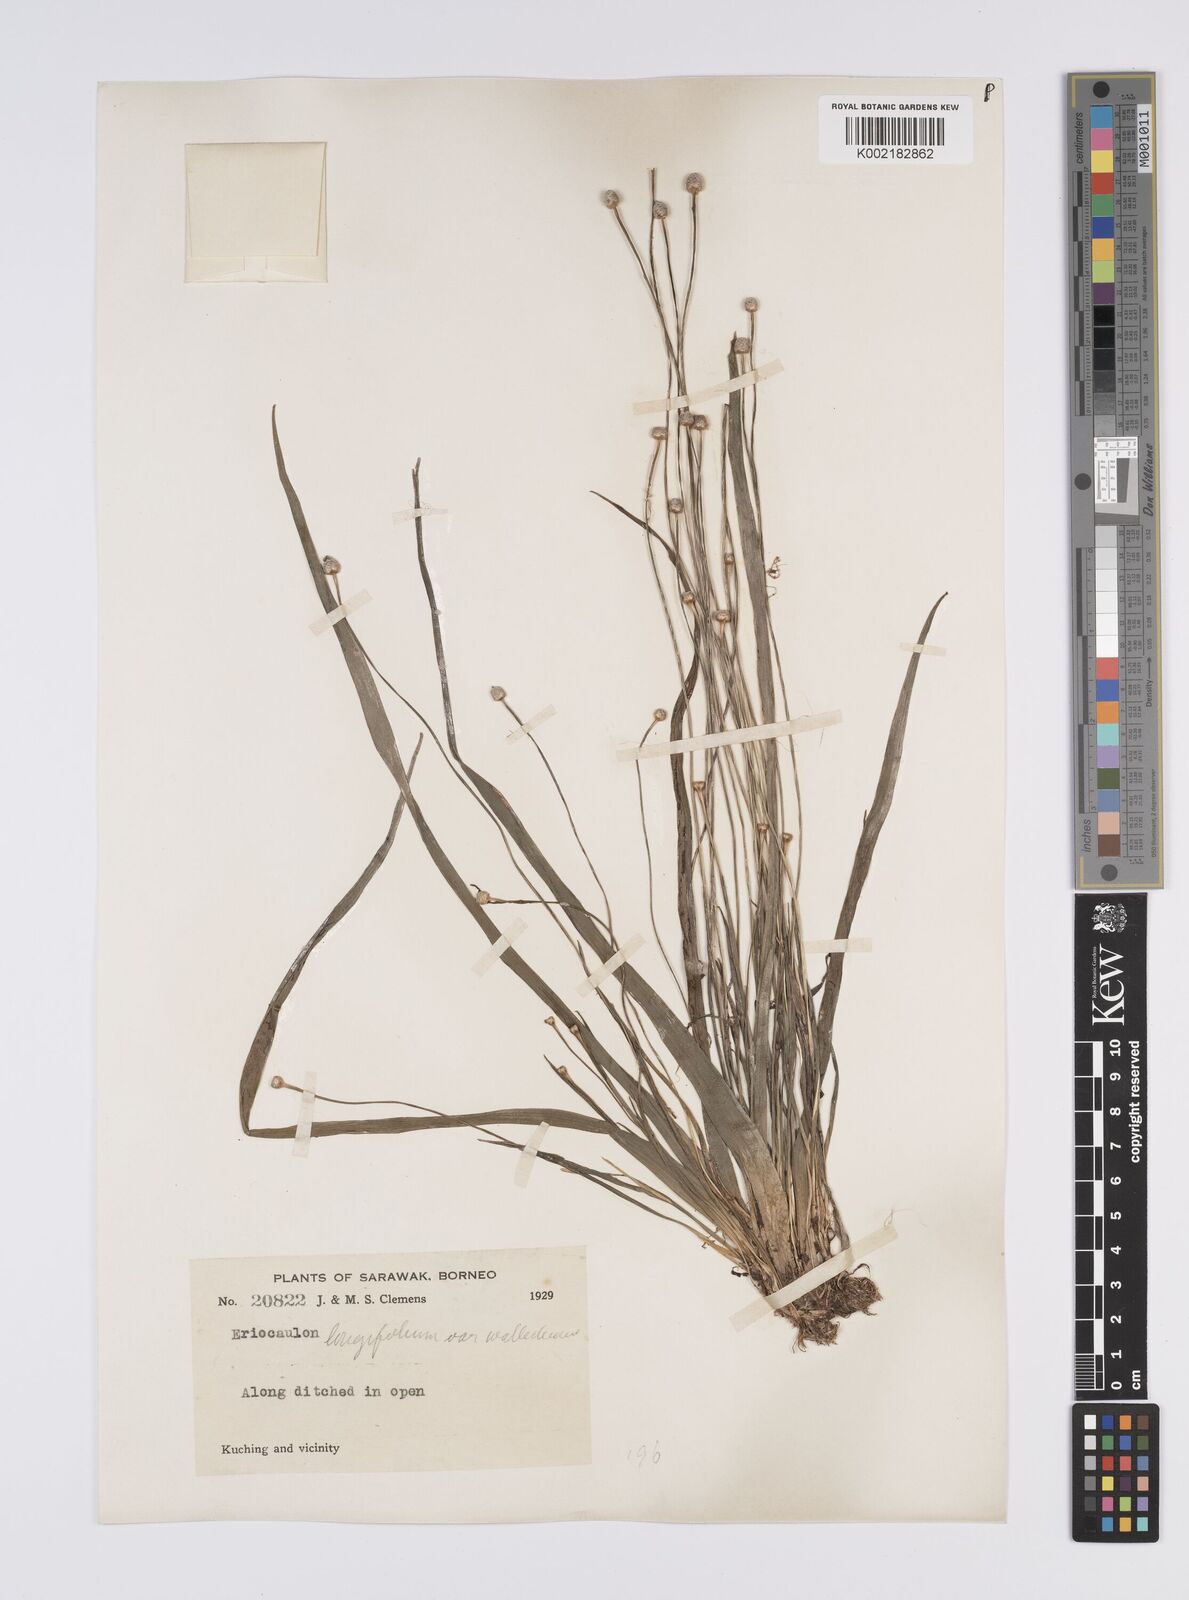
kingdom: Plantae
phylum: Tracheophyta
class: Liliopsida
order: Poales
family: Eriocaulaceae
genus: Eriocaulon
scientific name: Eriocaulon willdenovianum
